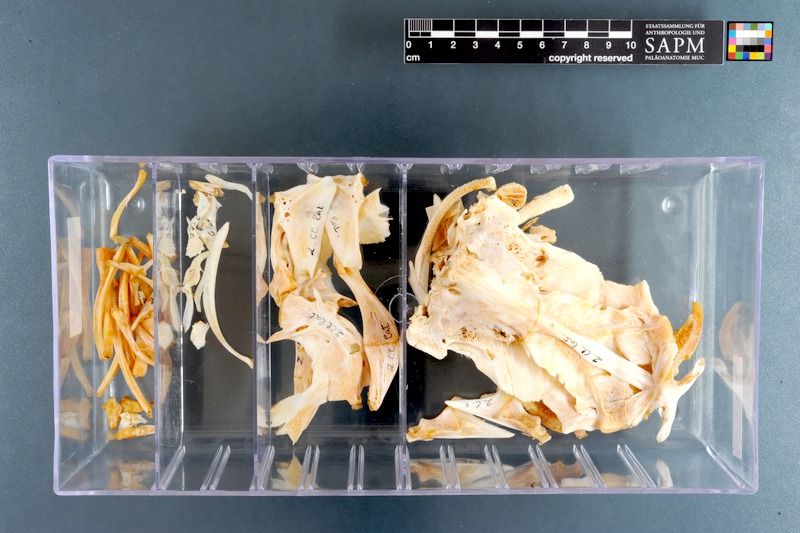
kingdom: Animalia
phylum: Chordata
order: Siluriformes
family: Claroteidae
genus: Clarotes
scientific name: Clarotes laticeps
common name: Spiny catfish
